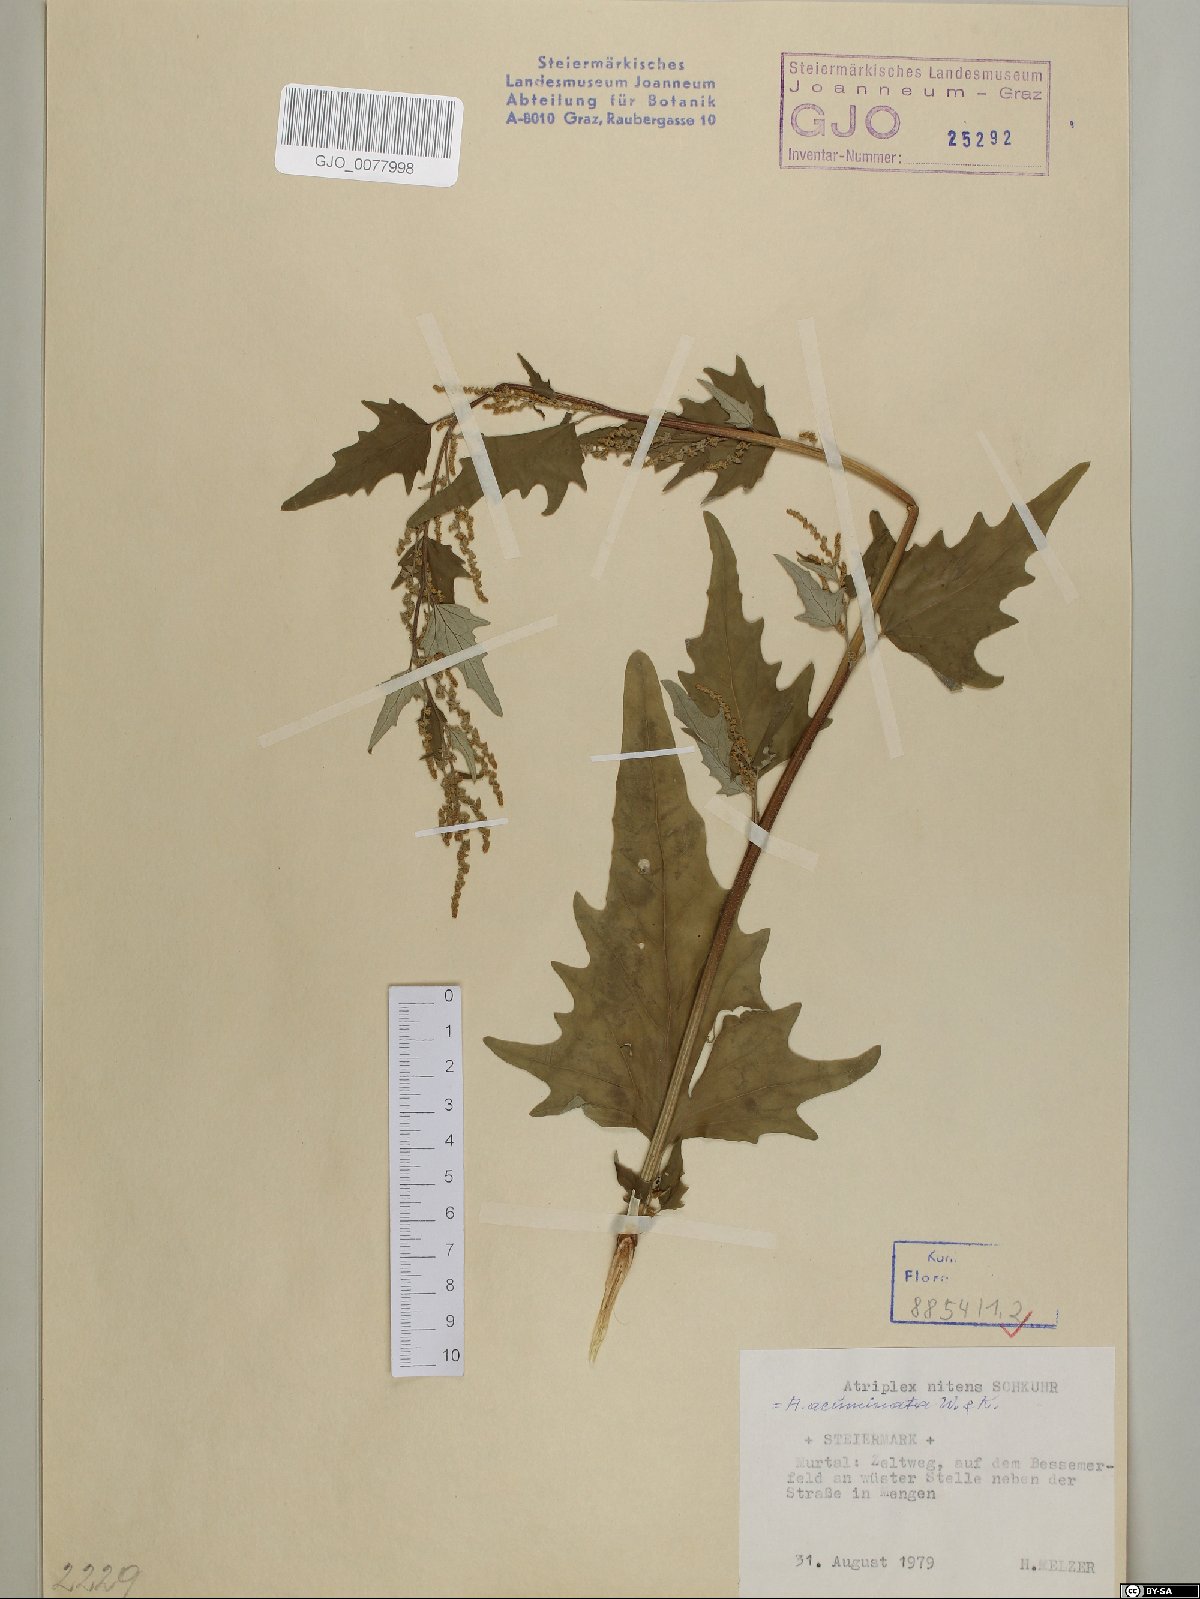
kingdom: Plantae
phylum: Tracheophyta
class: Magnoliopsida
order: Caryophyllales
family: Amaranthaceae
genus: Atriplex
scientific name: Atriplex sagittata
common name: Purple orache
